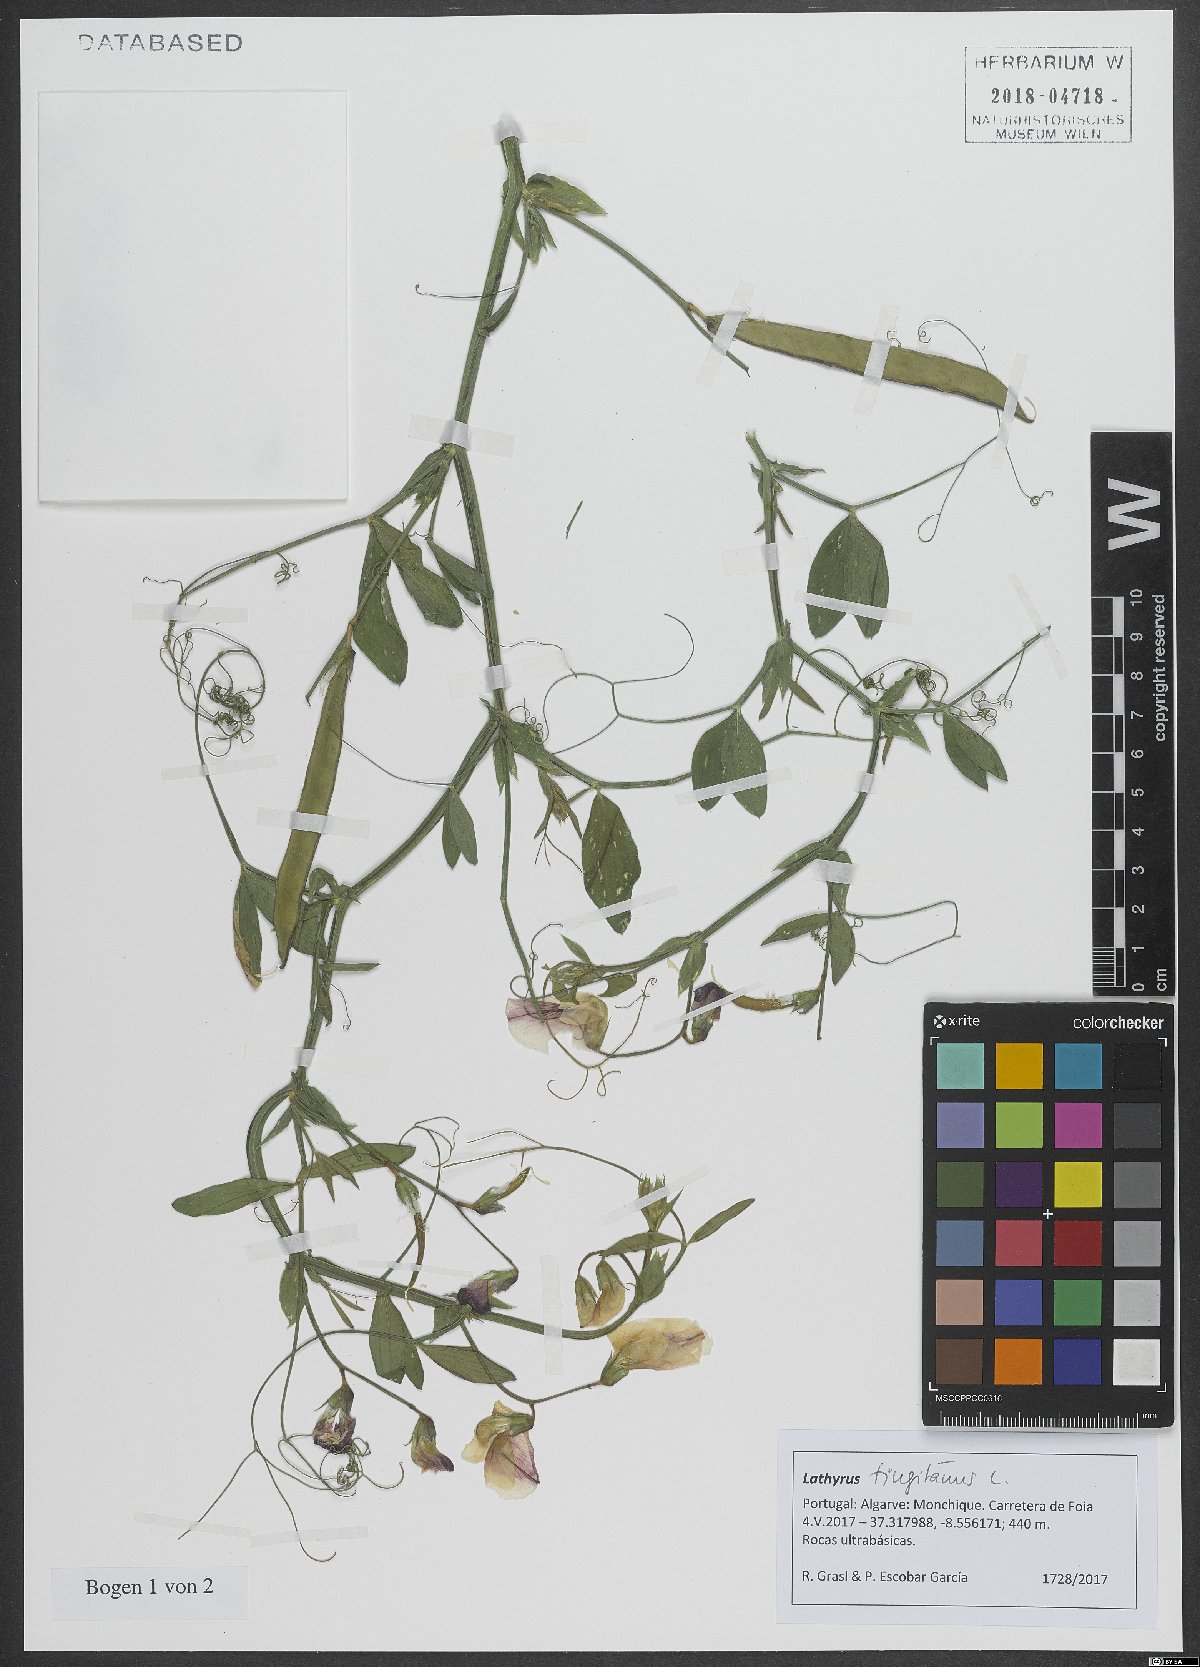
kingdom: Plantae
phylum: Tracheophyta
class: Magnoliopsida
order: Fabales
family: Fabaceae
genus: Lathyrus
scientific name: Lathyrus tingitanus
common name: Tangier pea
